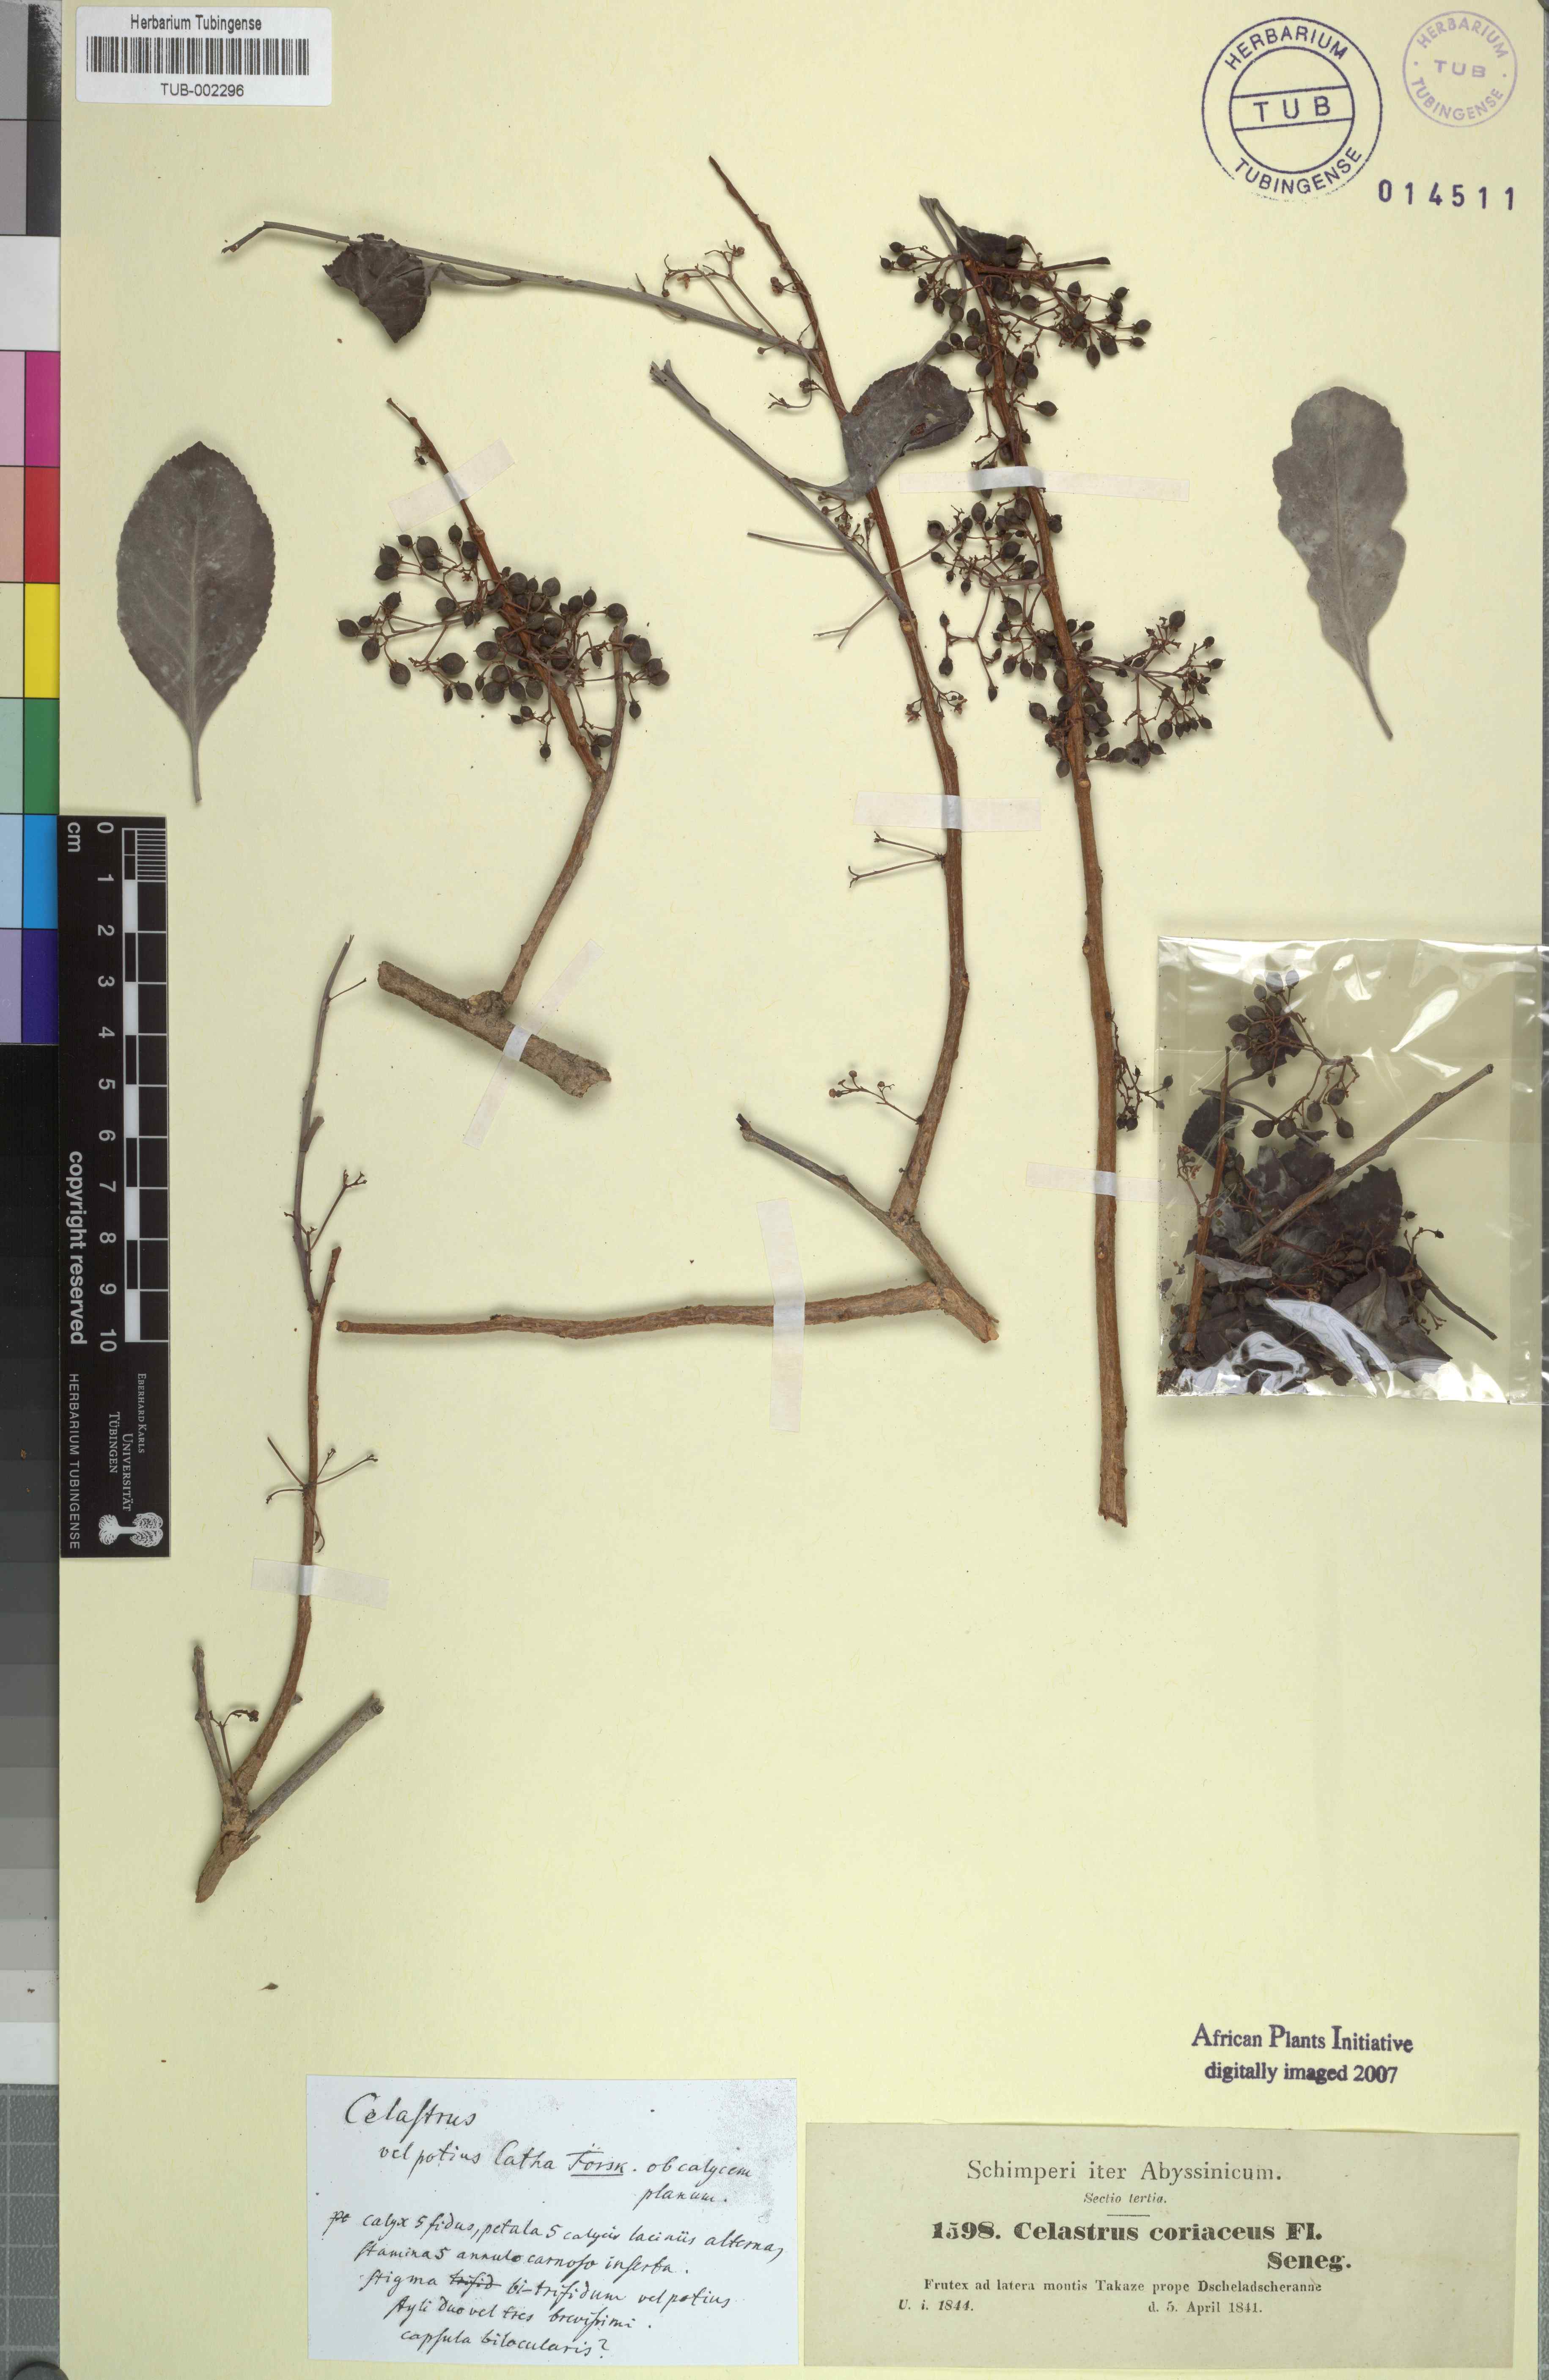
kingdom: Plantae
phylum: Tracheophyta
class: Magnoliopsida
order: Celastrales
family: Celastraceae
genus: Gymnosporia
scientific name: Gymnosporia senegalensis
